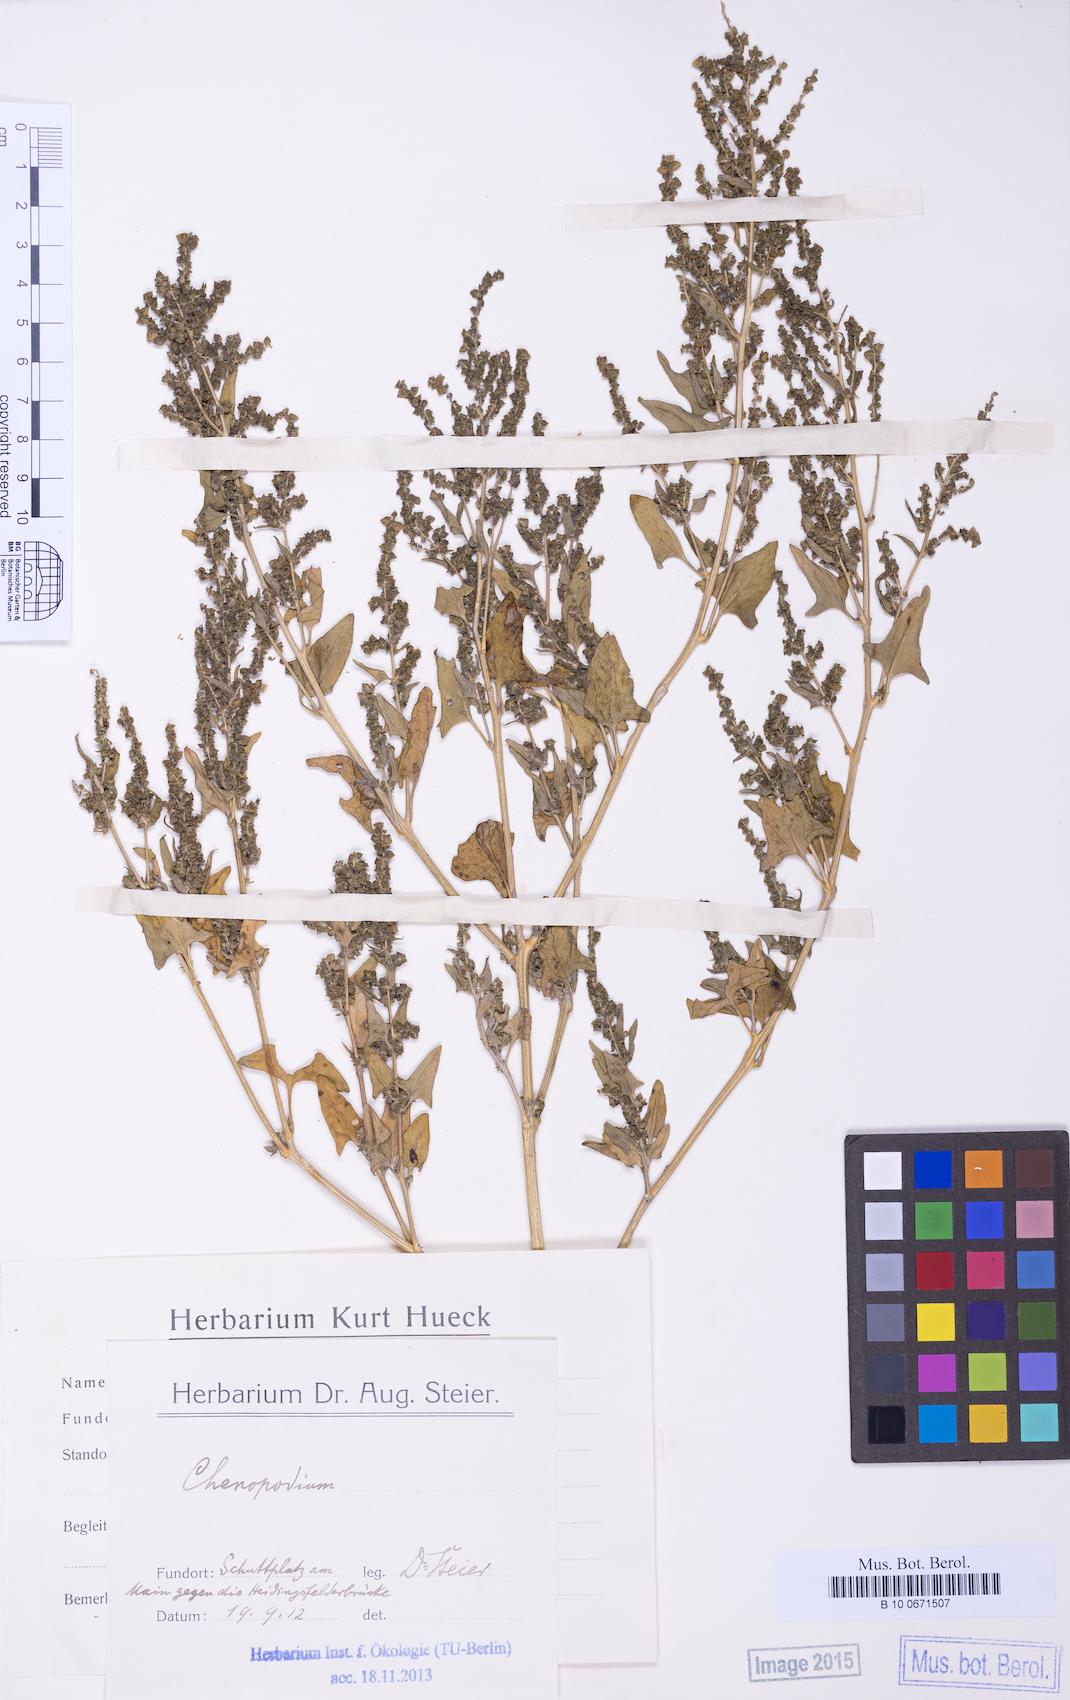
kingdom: Plantae
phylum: Tracheophyta
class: Magnoliopsida
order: Caryophyllales
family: Amaranthaceae
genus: Atriplex
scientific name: Atriplex
